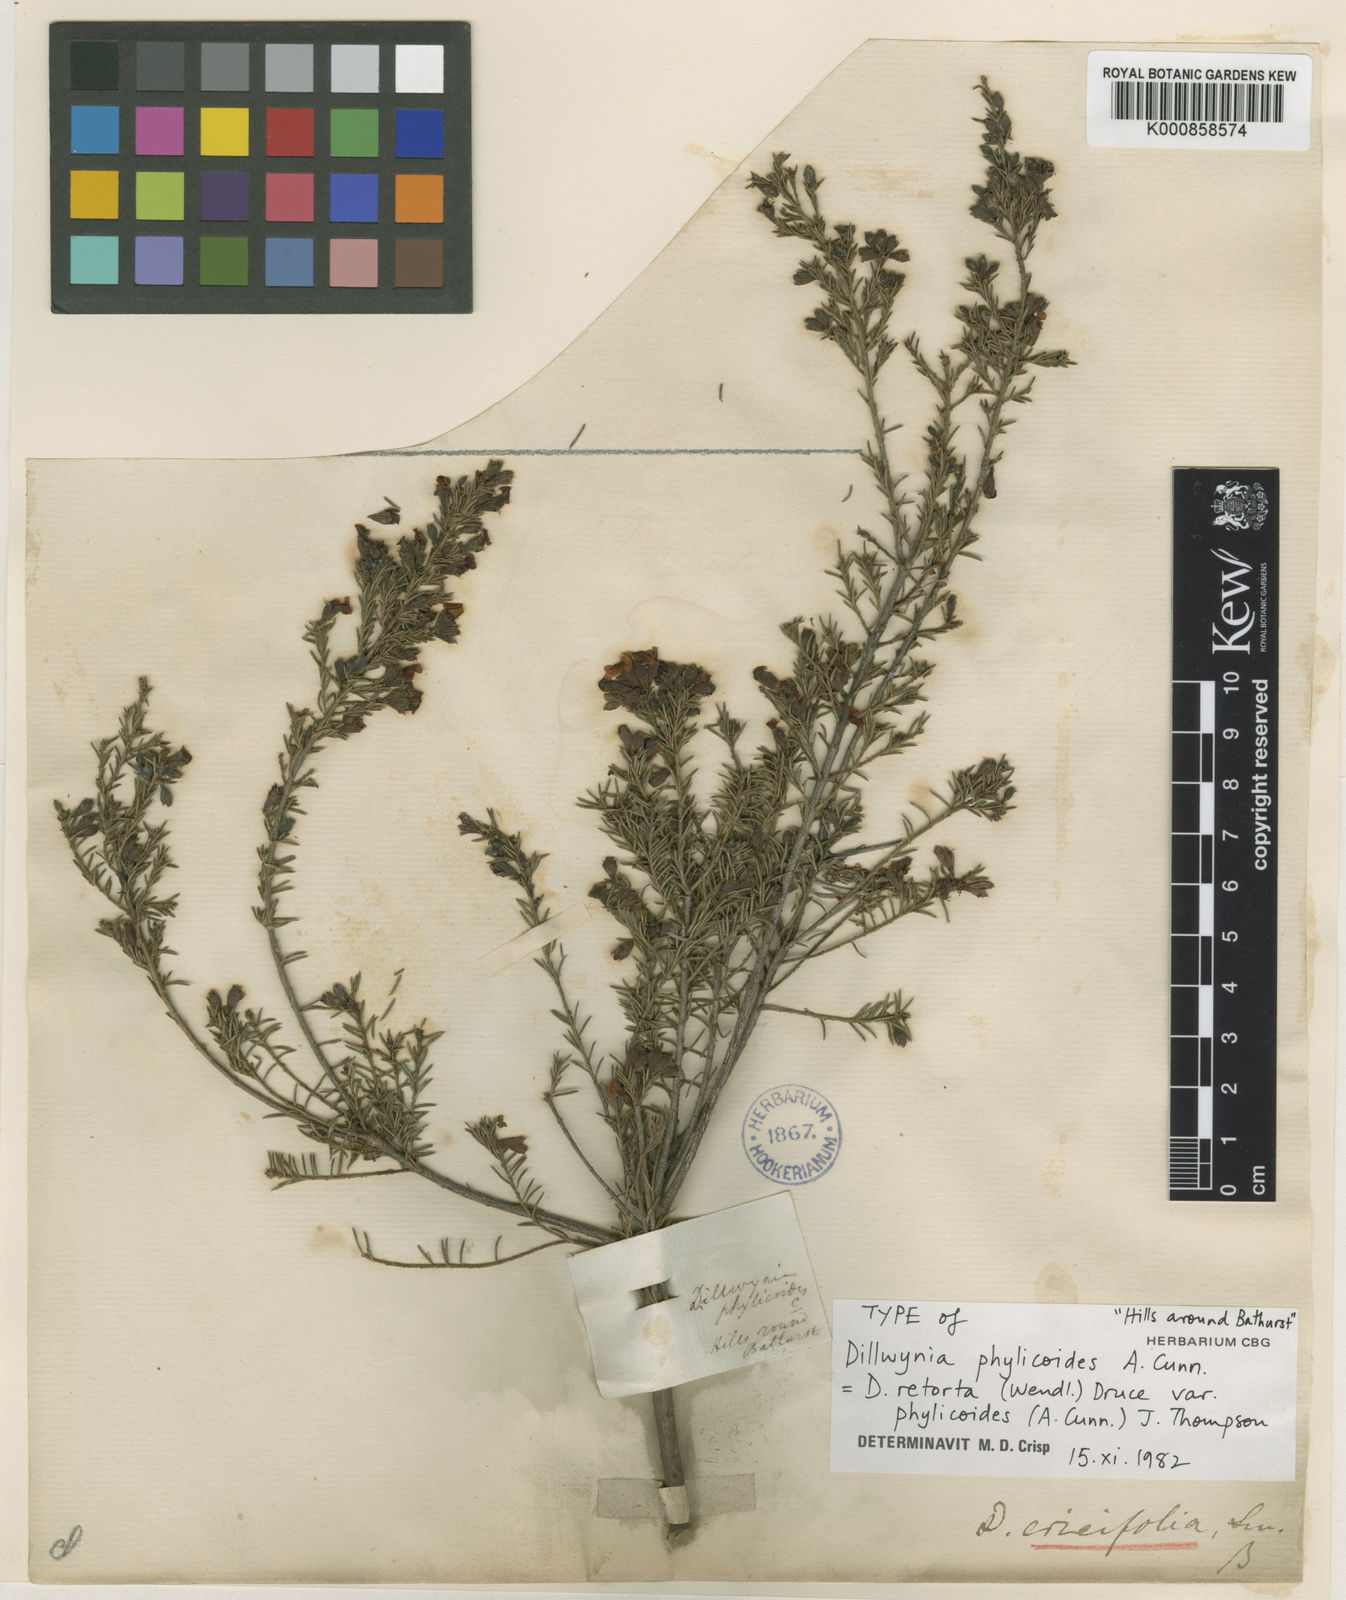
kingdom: Plantae
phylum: Tracheophyta
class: Magnoliopsida
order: Fabales
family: Fabaceae
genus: Dillwynia
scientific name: Dillwynia phylicoides
